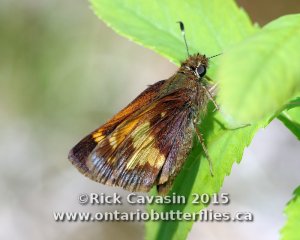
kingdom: Animalia
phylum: Arthropoda
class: Insecta
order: Lepidoptera
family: Hesperiidae
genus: Lon
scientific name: Lon hobomok
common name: Hobomok Skipper
